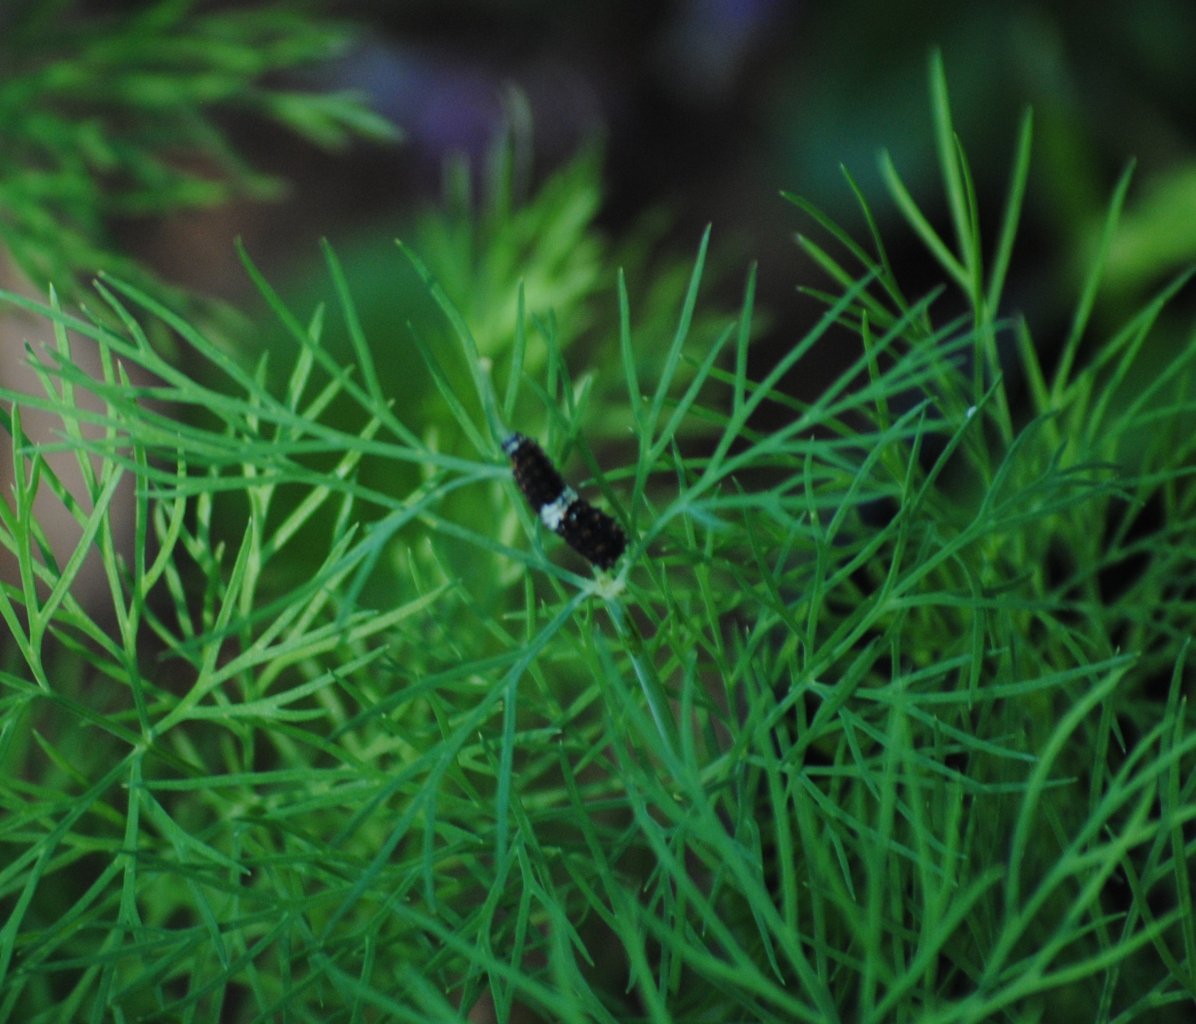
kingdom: Animalia
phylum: Arthropoda
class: Insecta
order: Lepidoptera
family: Papilionidae
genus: Papilio
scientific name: Papilio polyxenes
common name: Black Swallowtail
